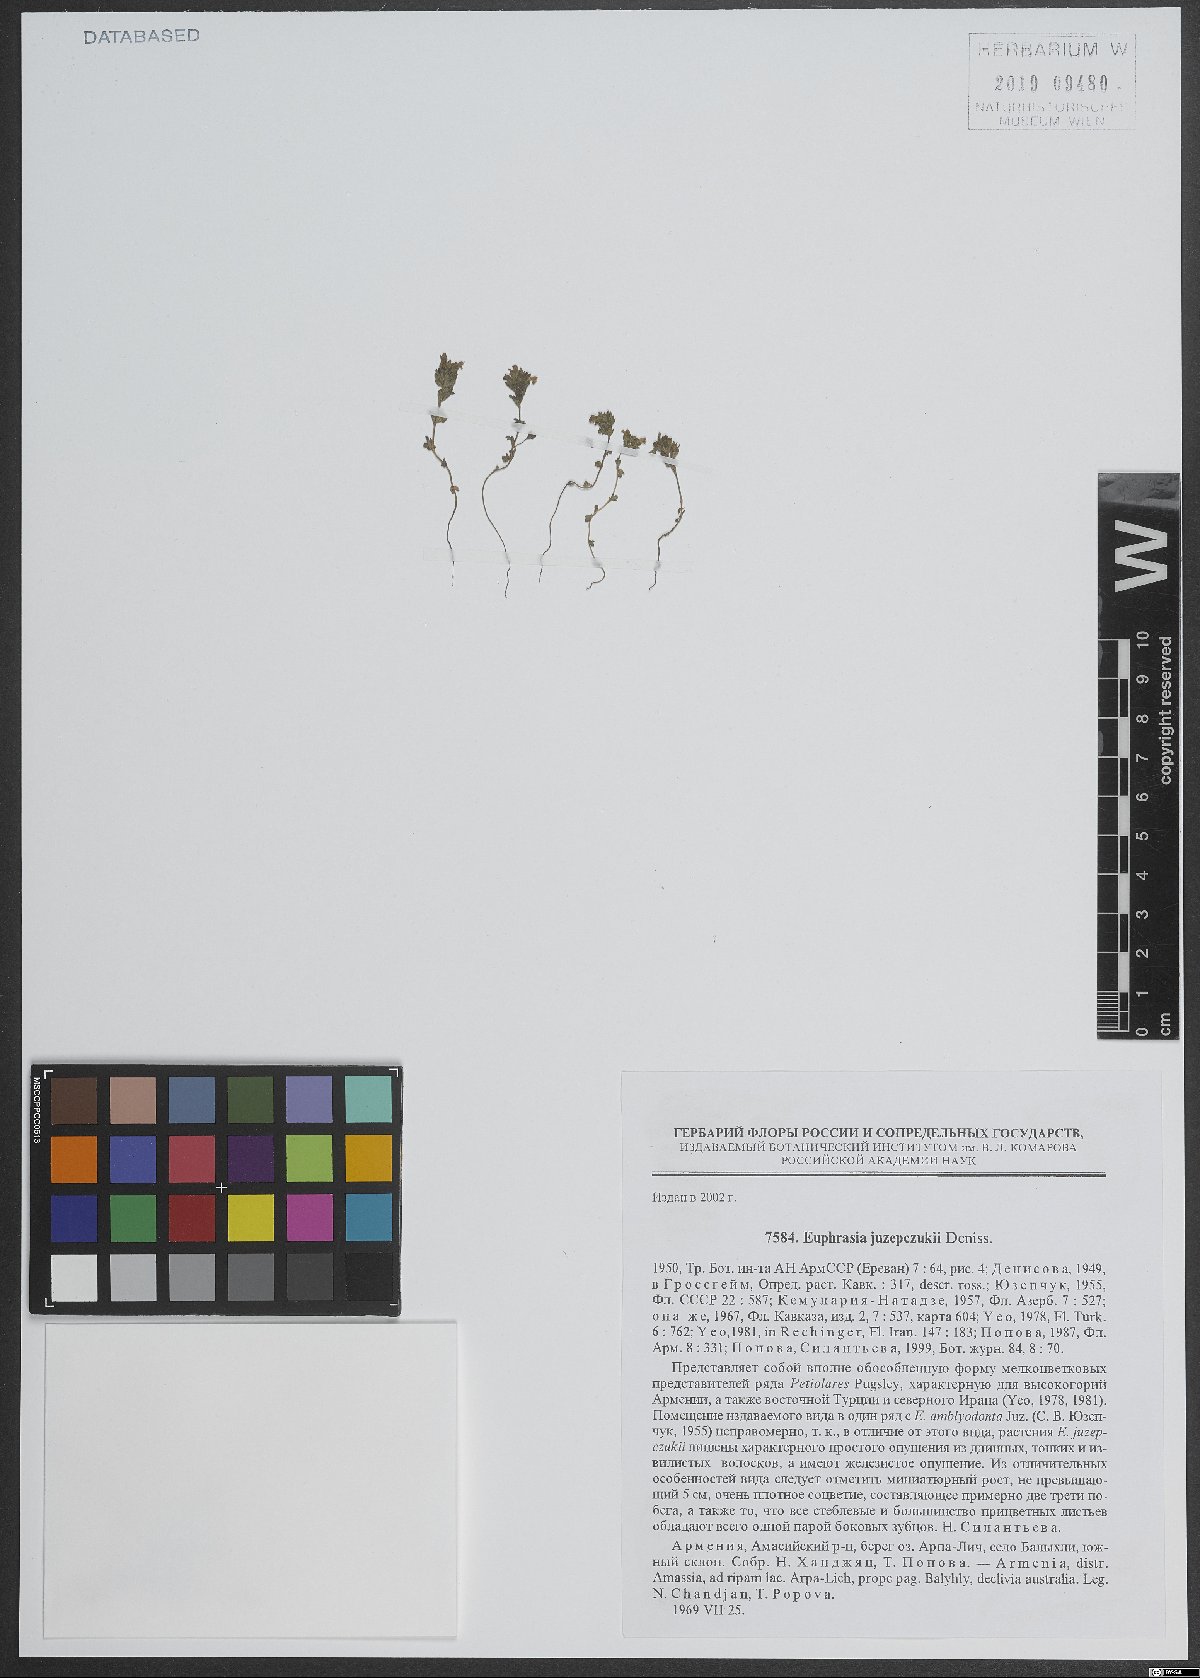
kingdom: Plantae
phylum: Tracheophyta
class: Magnoliopsida
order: Lamiales
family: Orobanchaceae
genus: Euphrasia
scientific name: Euphrasia juzepczukii
